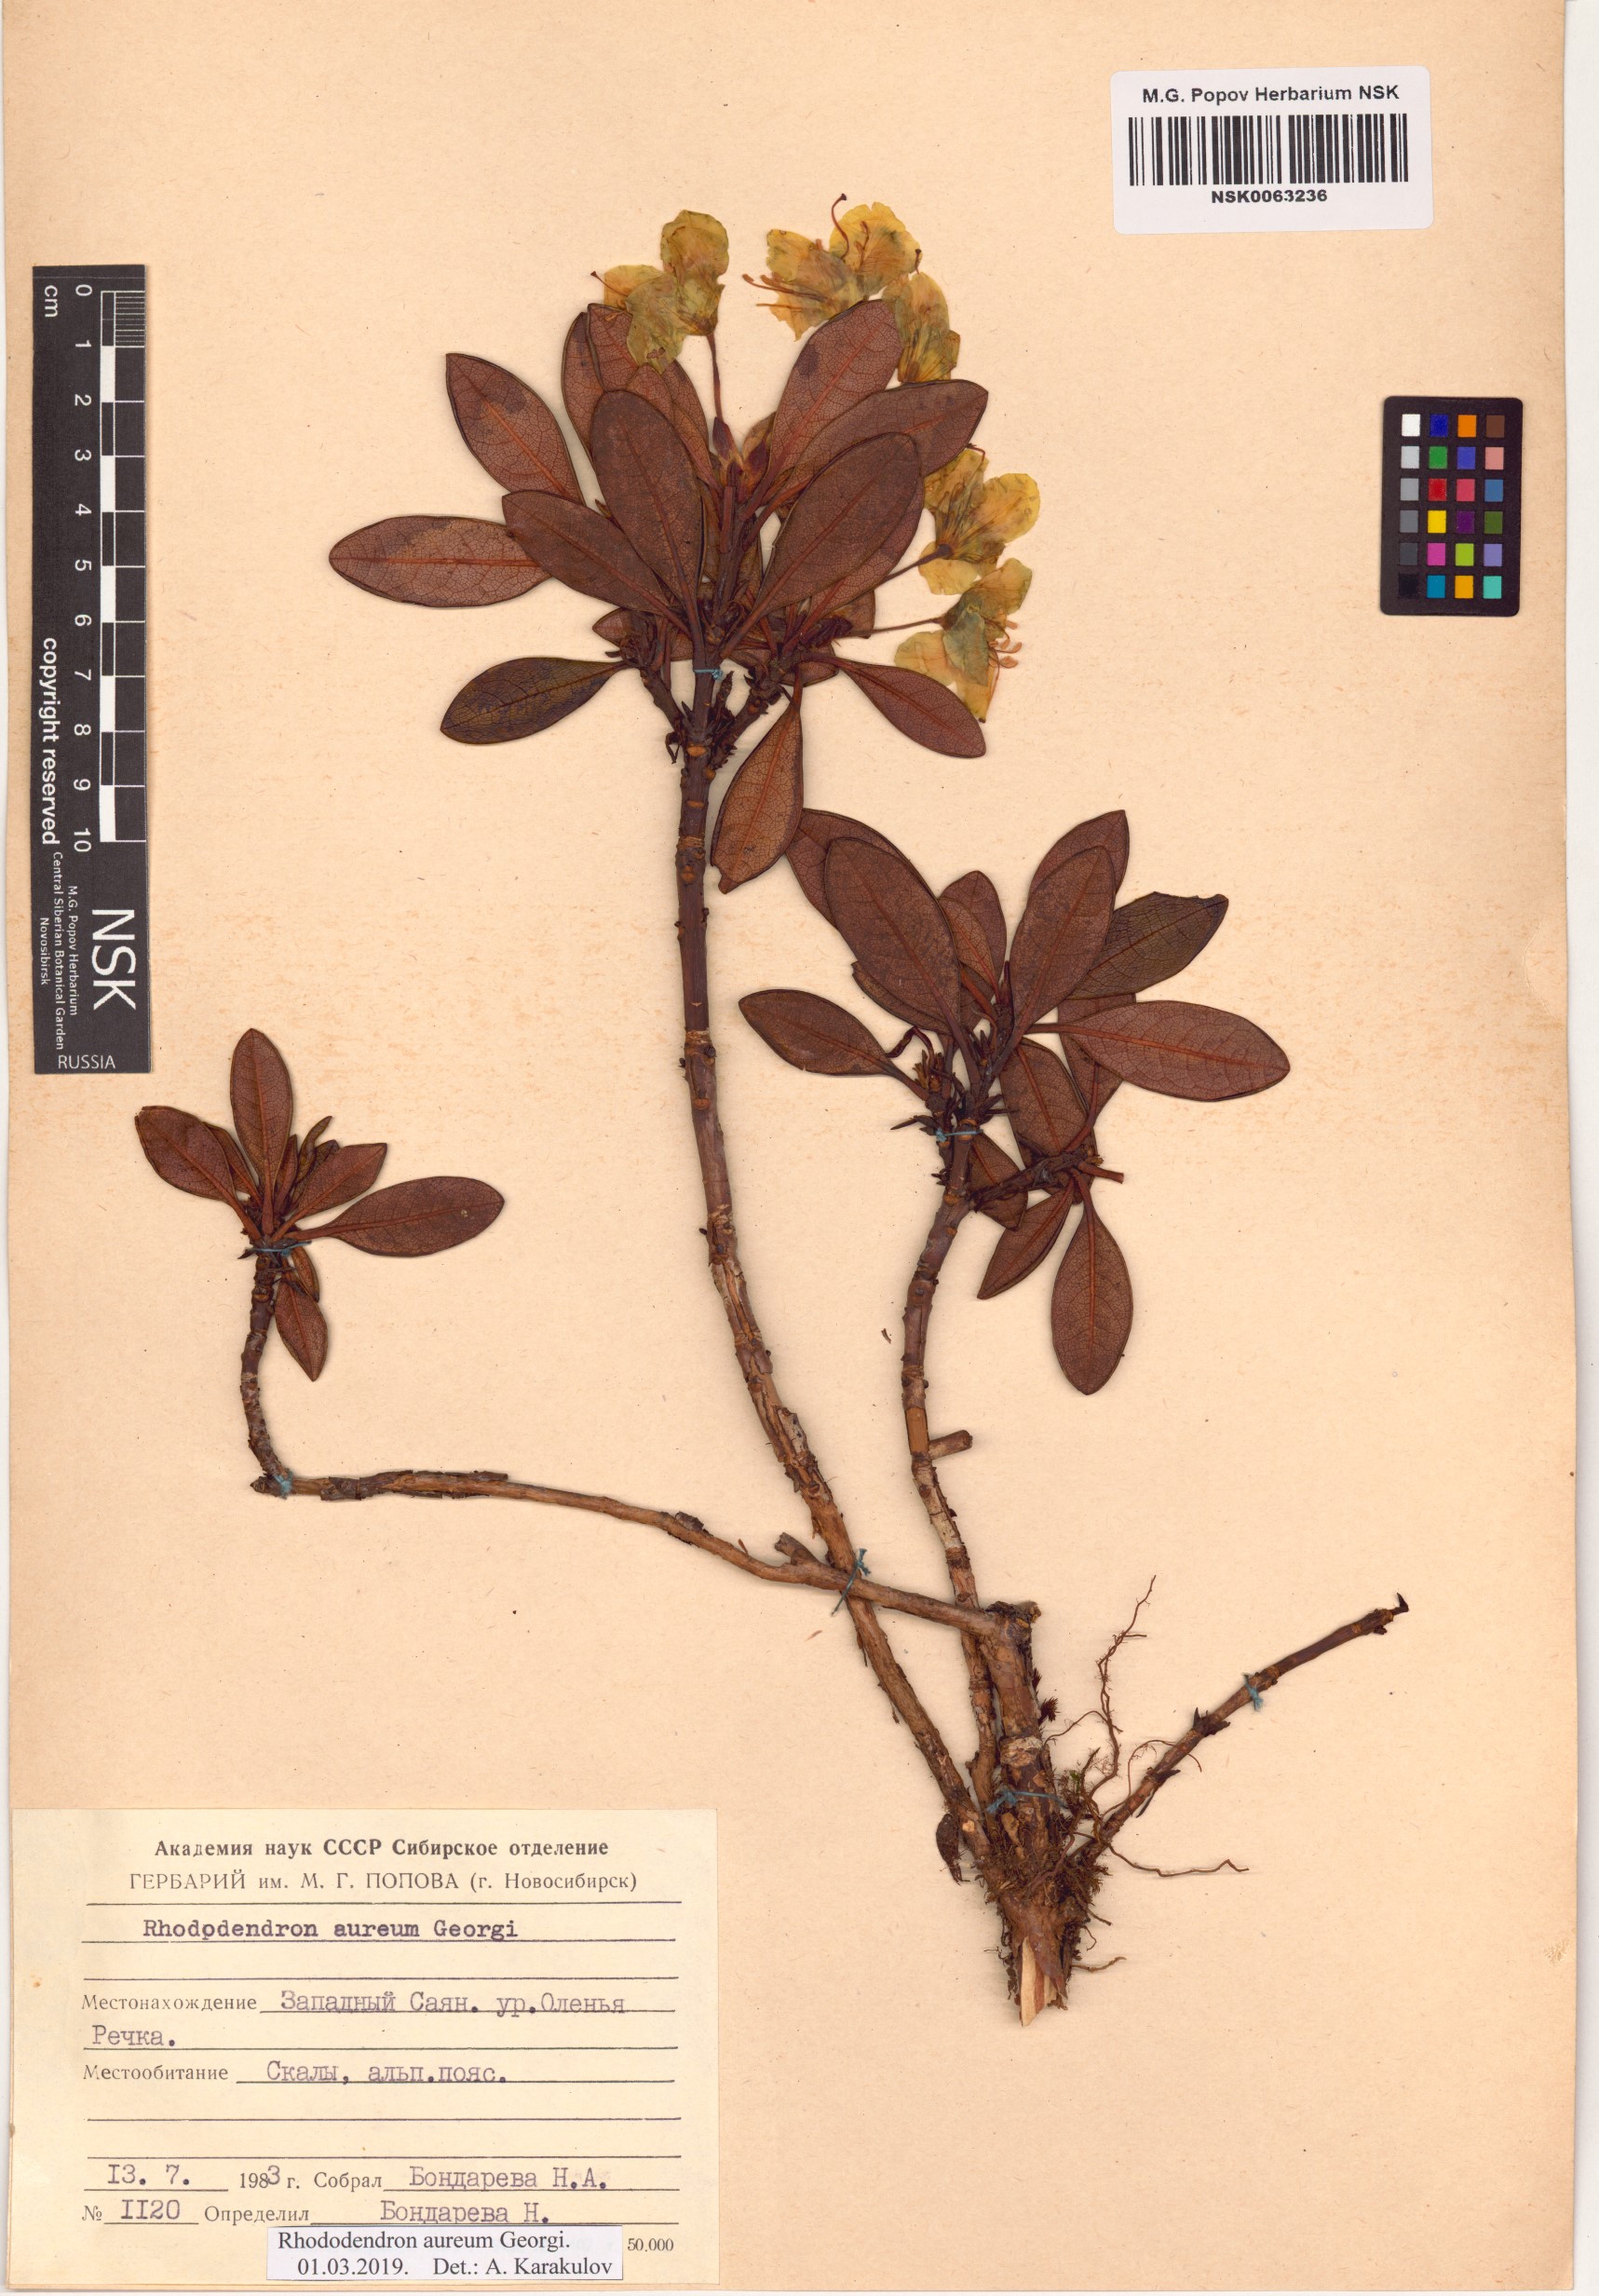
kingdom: Plantae
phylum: Tracheophyta
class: Magnoliopsida
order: Ericales
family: Ericaceae
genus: Rhododendron
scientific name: Rhododendron aureum
